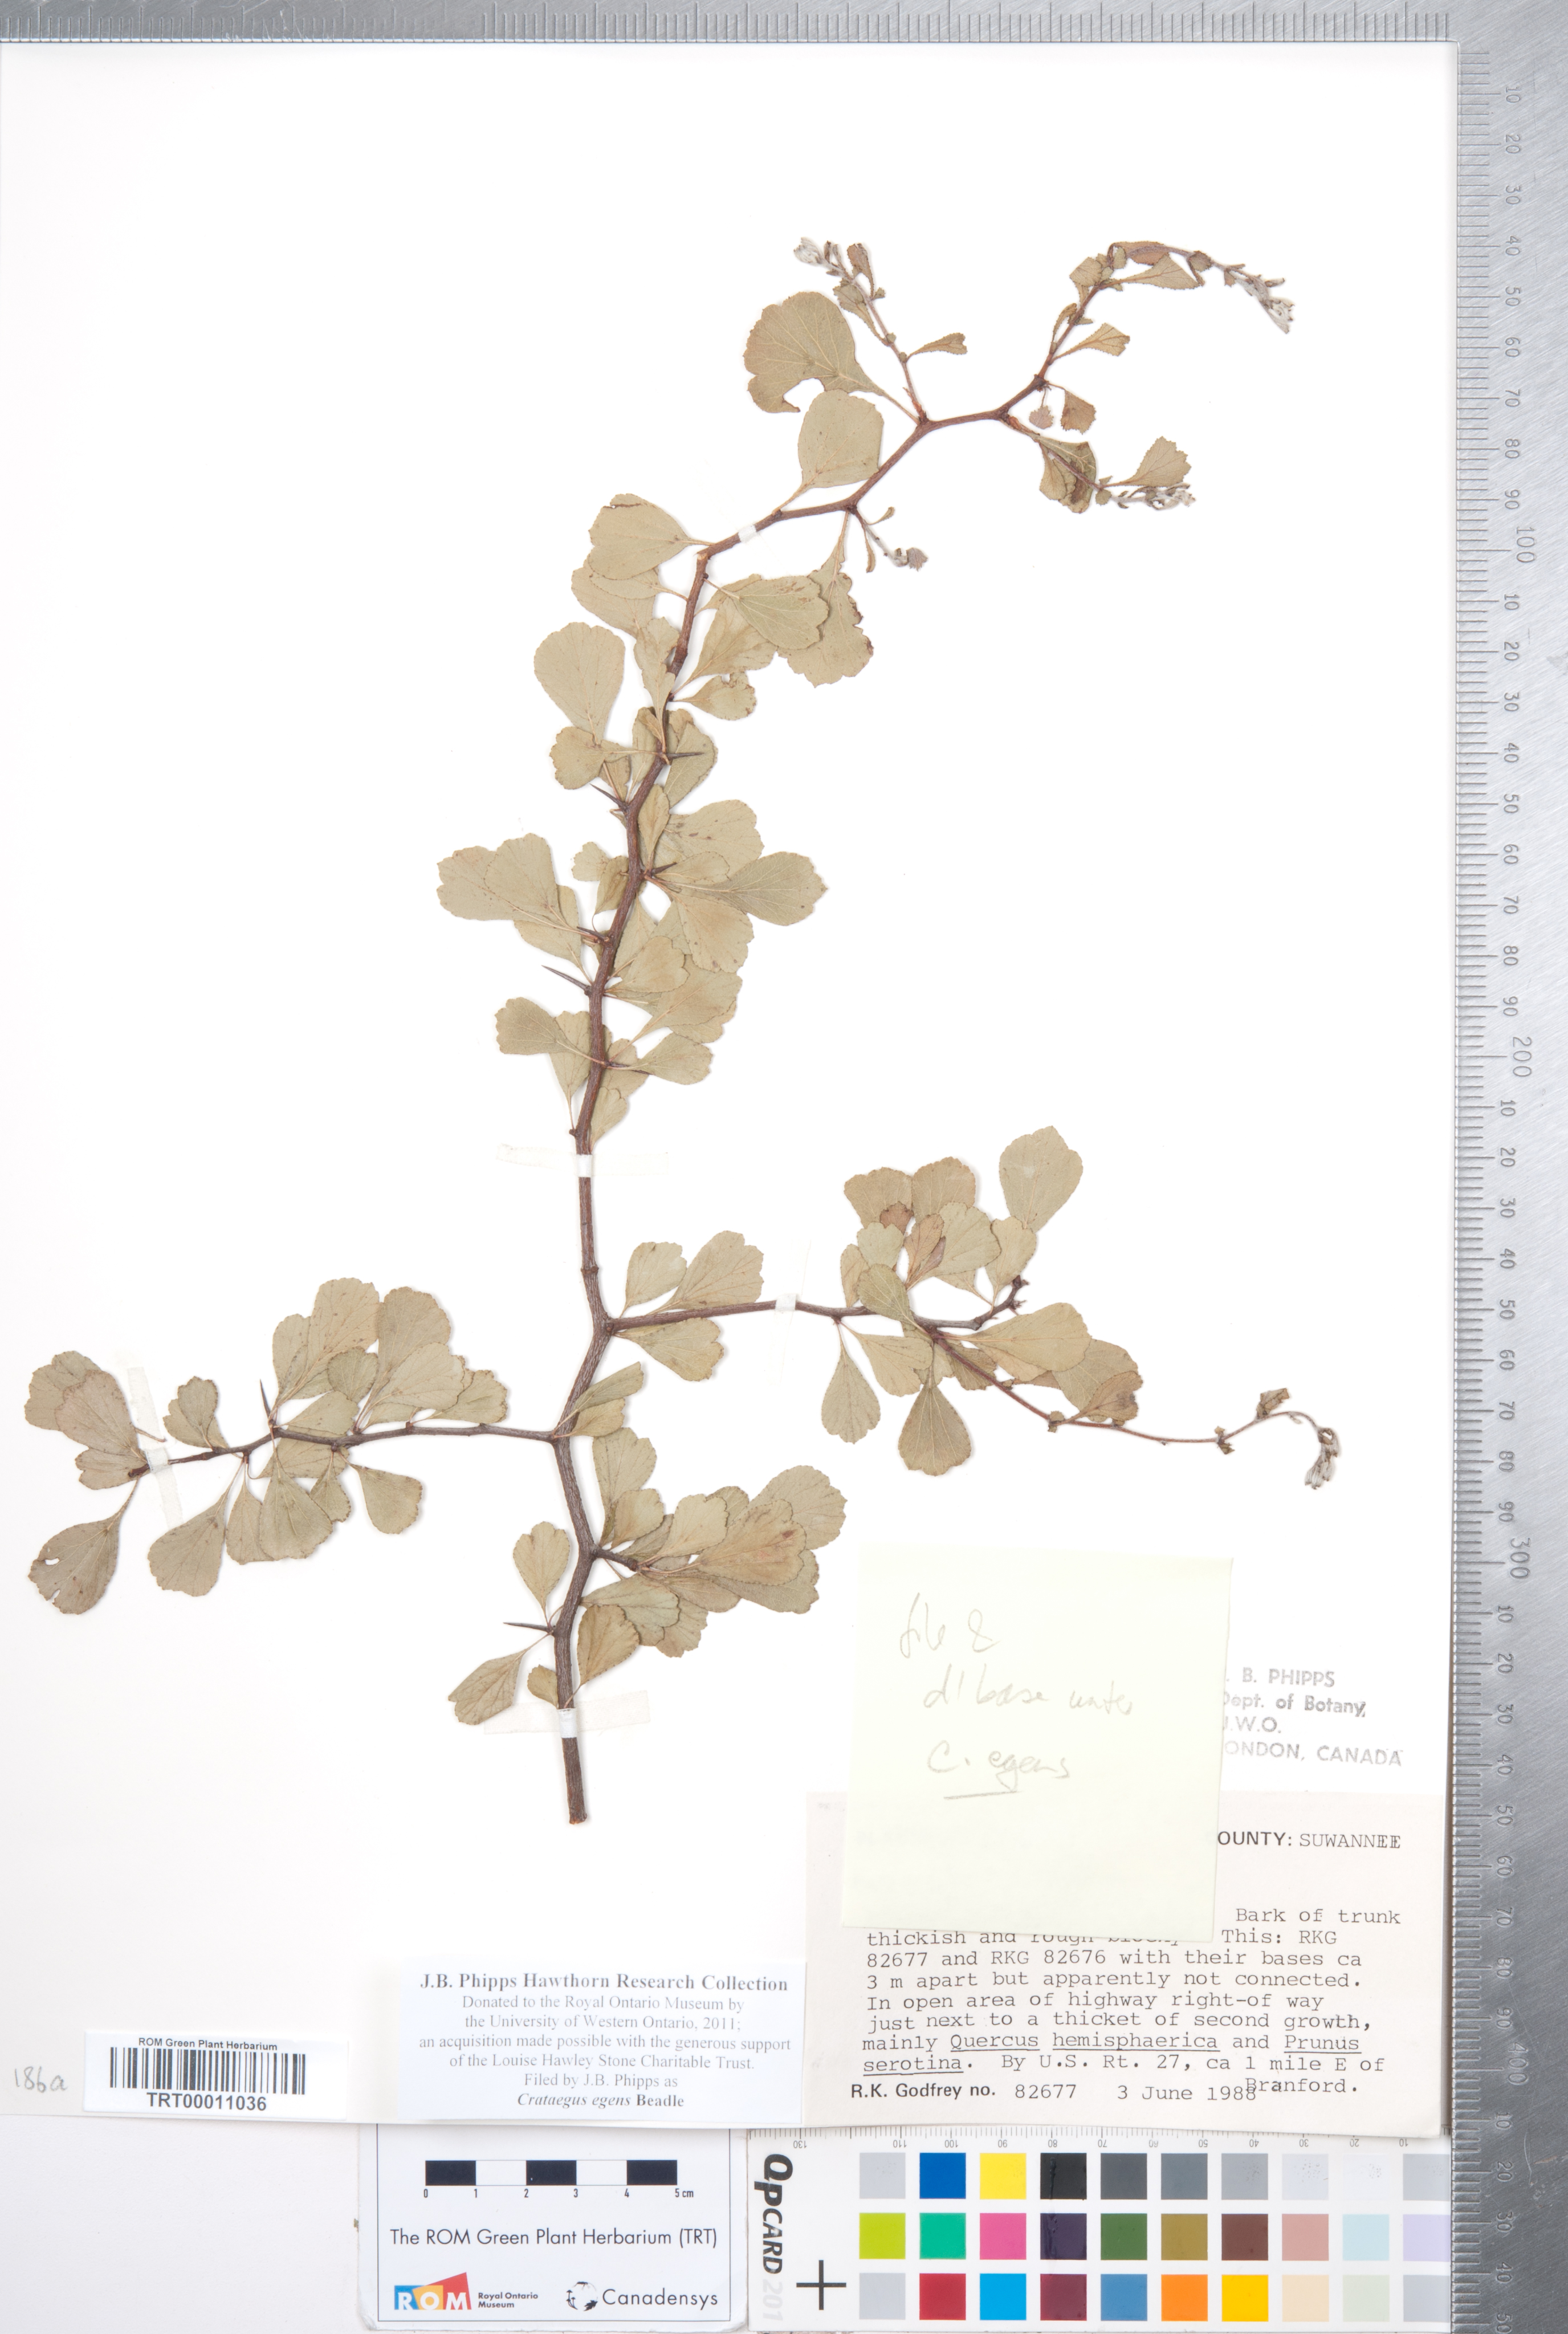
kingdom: Plantae
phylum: Tracheophyta
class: Magnoliopsida
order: Rosales
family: Rosaceae
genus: Crataegus
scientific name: Crataegus senta
